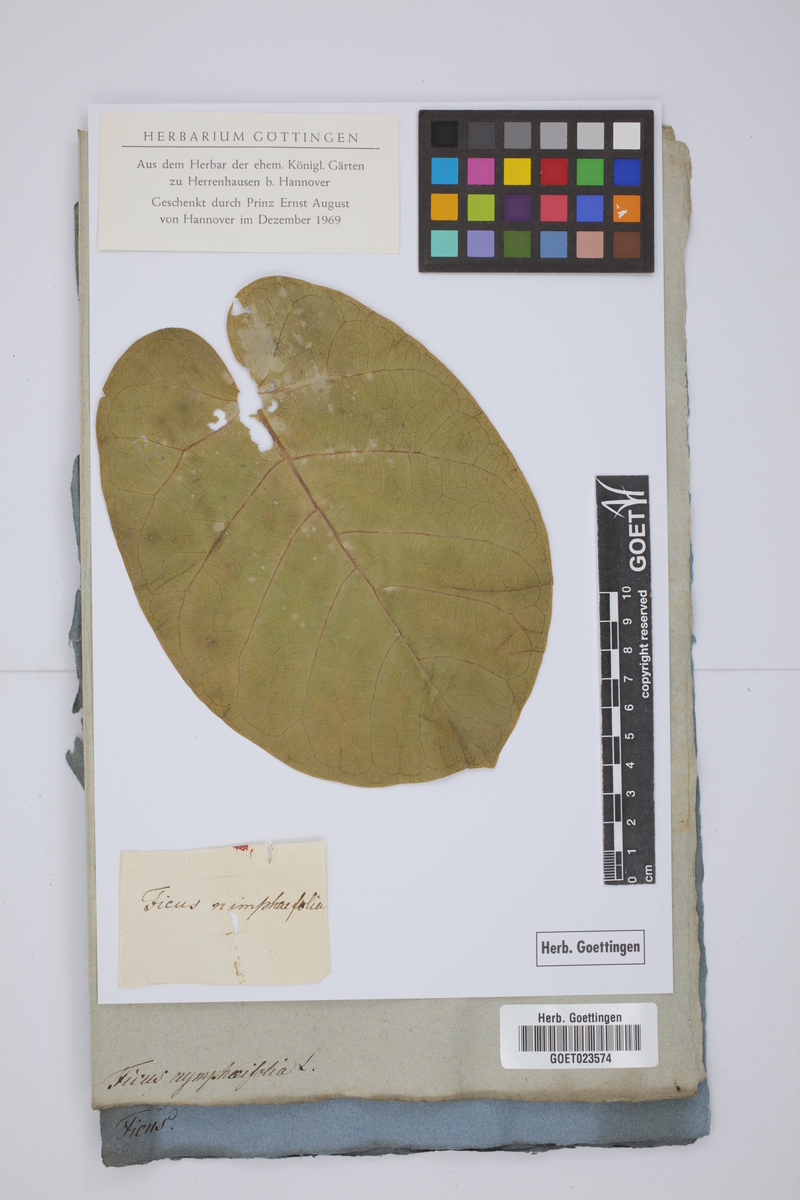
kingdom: Plantae
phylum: Tracheophyta
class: Magnoliopsida
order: Rosales
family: Moraceae
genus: Ficus
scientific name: Ficus numphaeifolia
